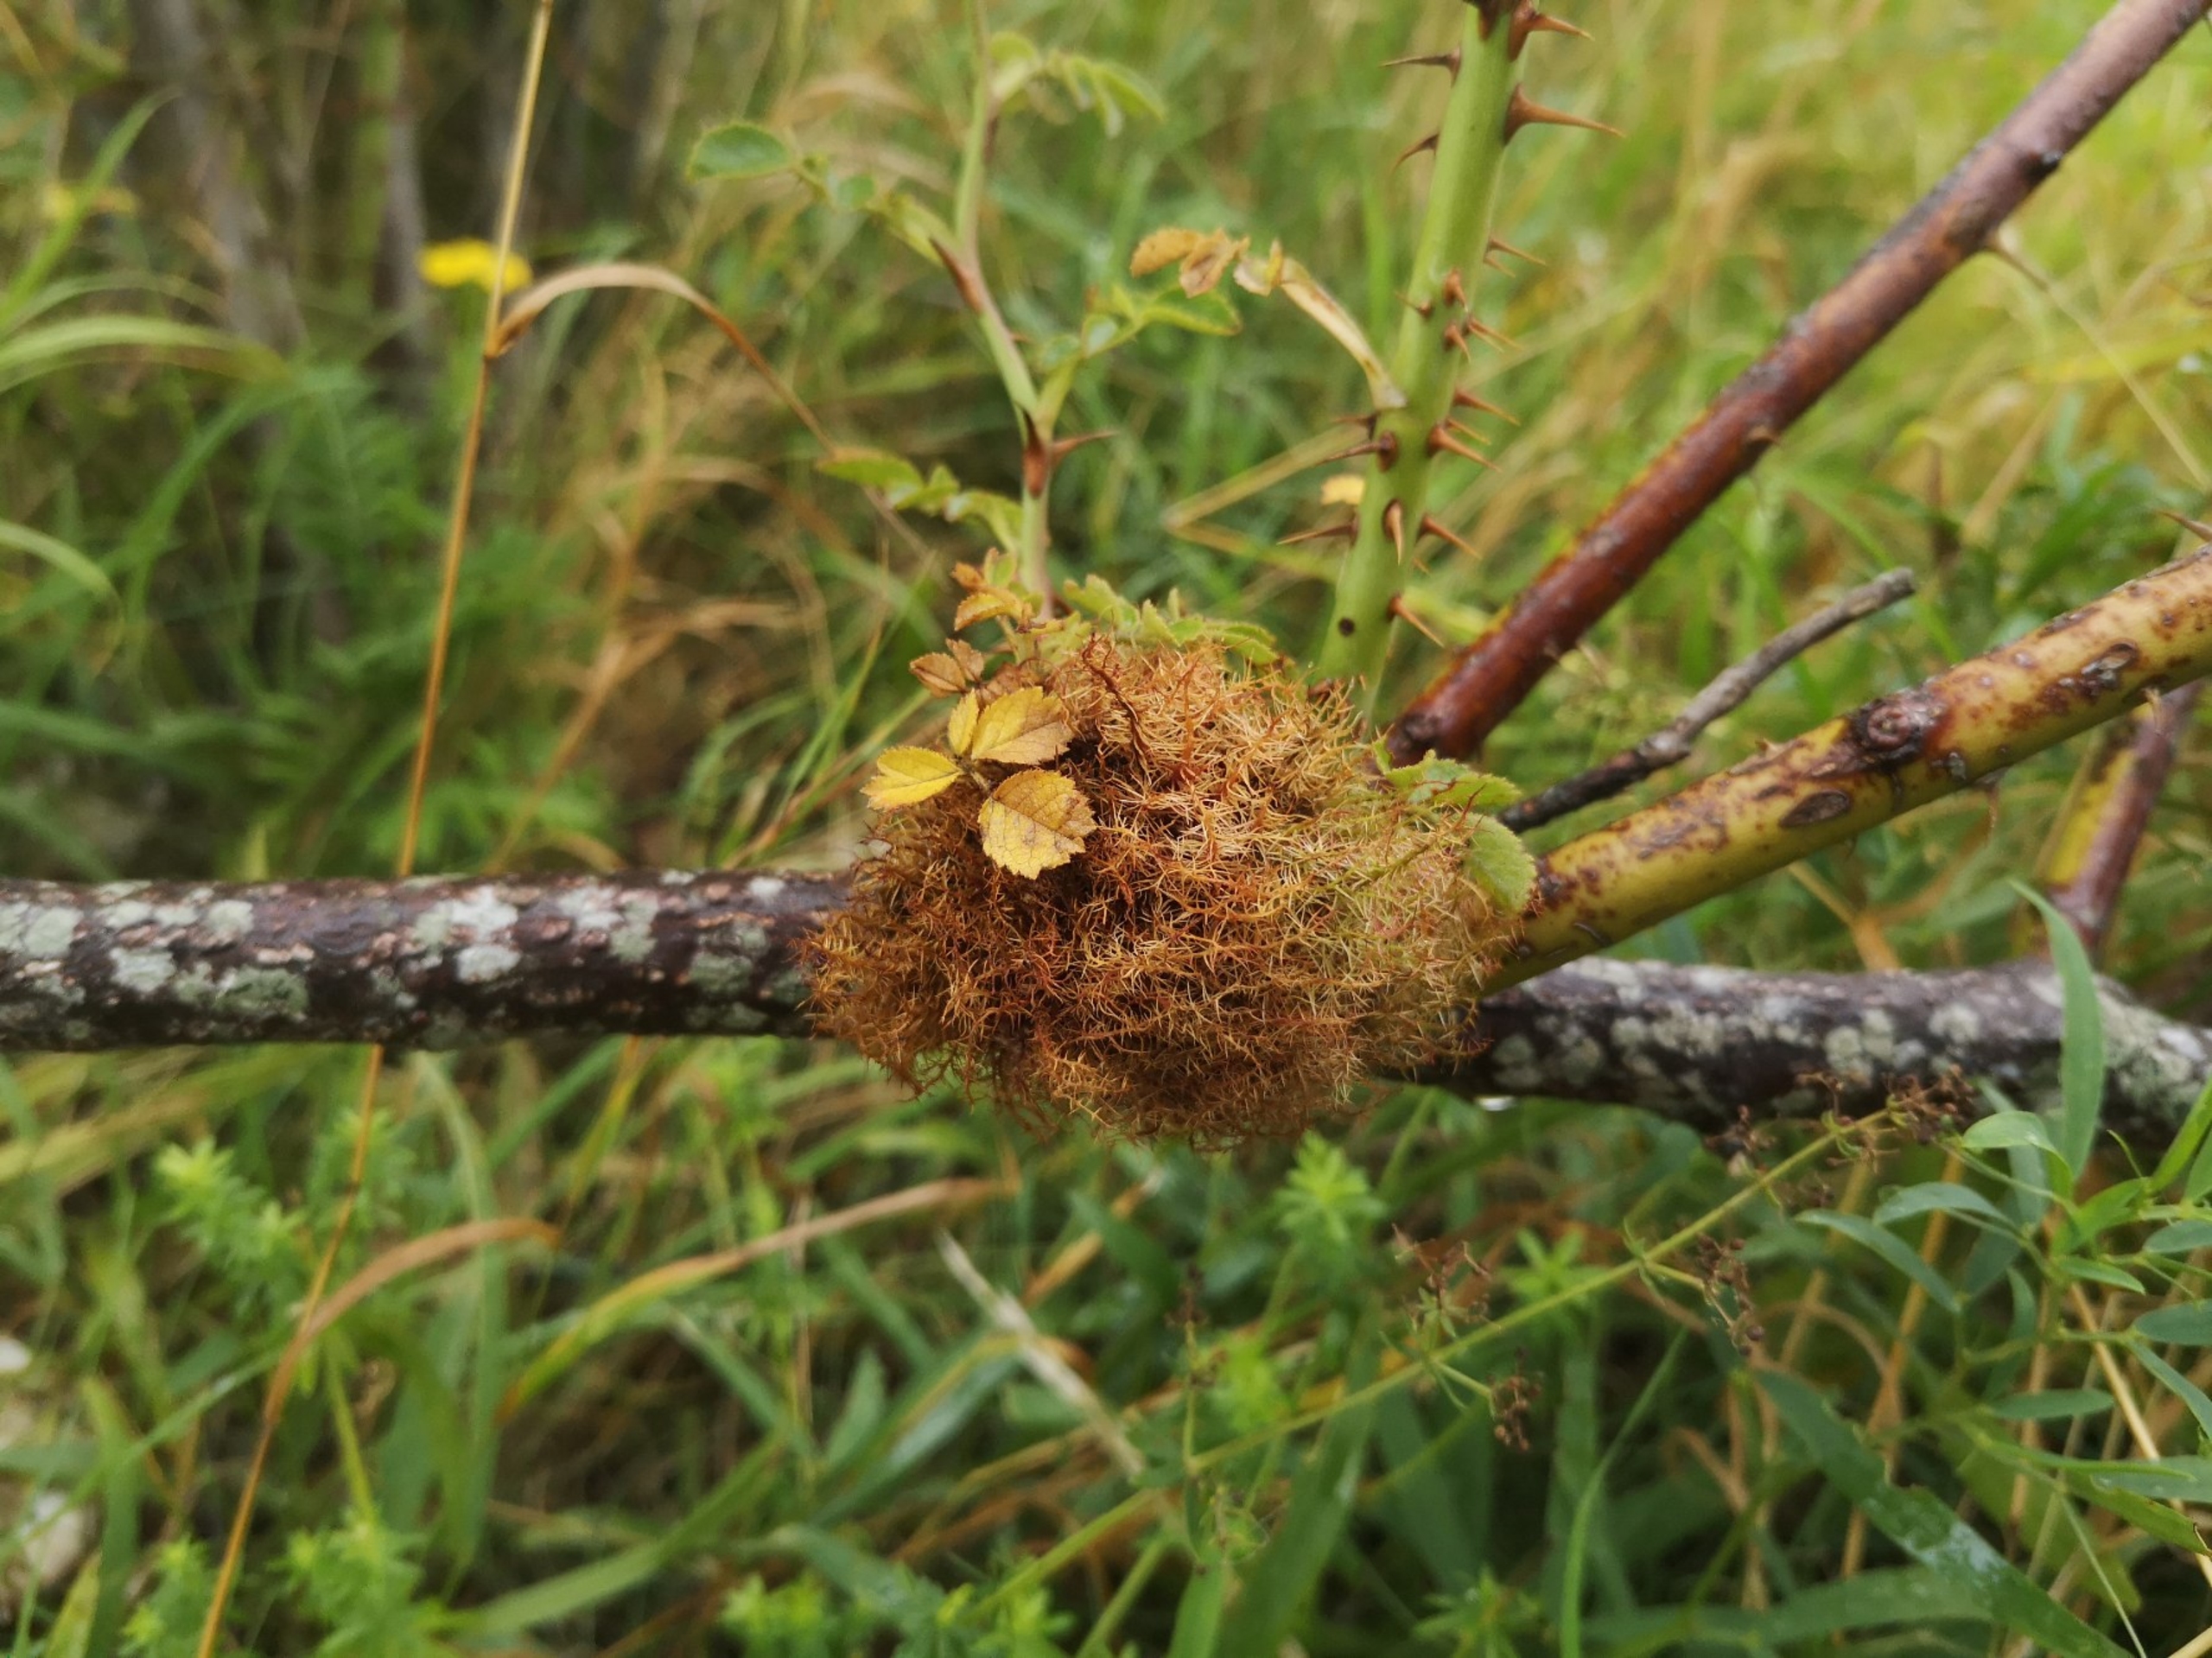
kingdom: Animalia
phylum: Arthropoda
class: Insecta
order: Hymenoptera
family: Cynipidae
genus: Diplolepis
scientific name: Diplolepis rosae
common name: Bedeguargalhveps
